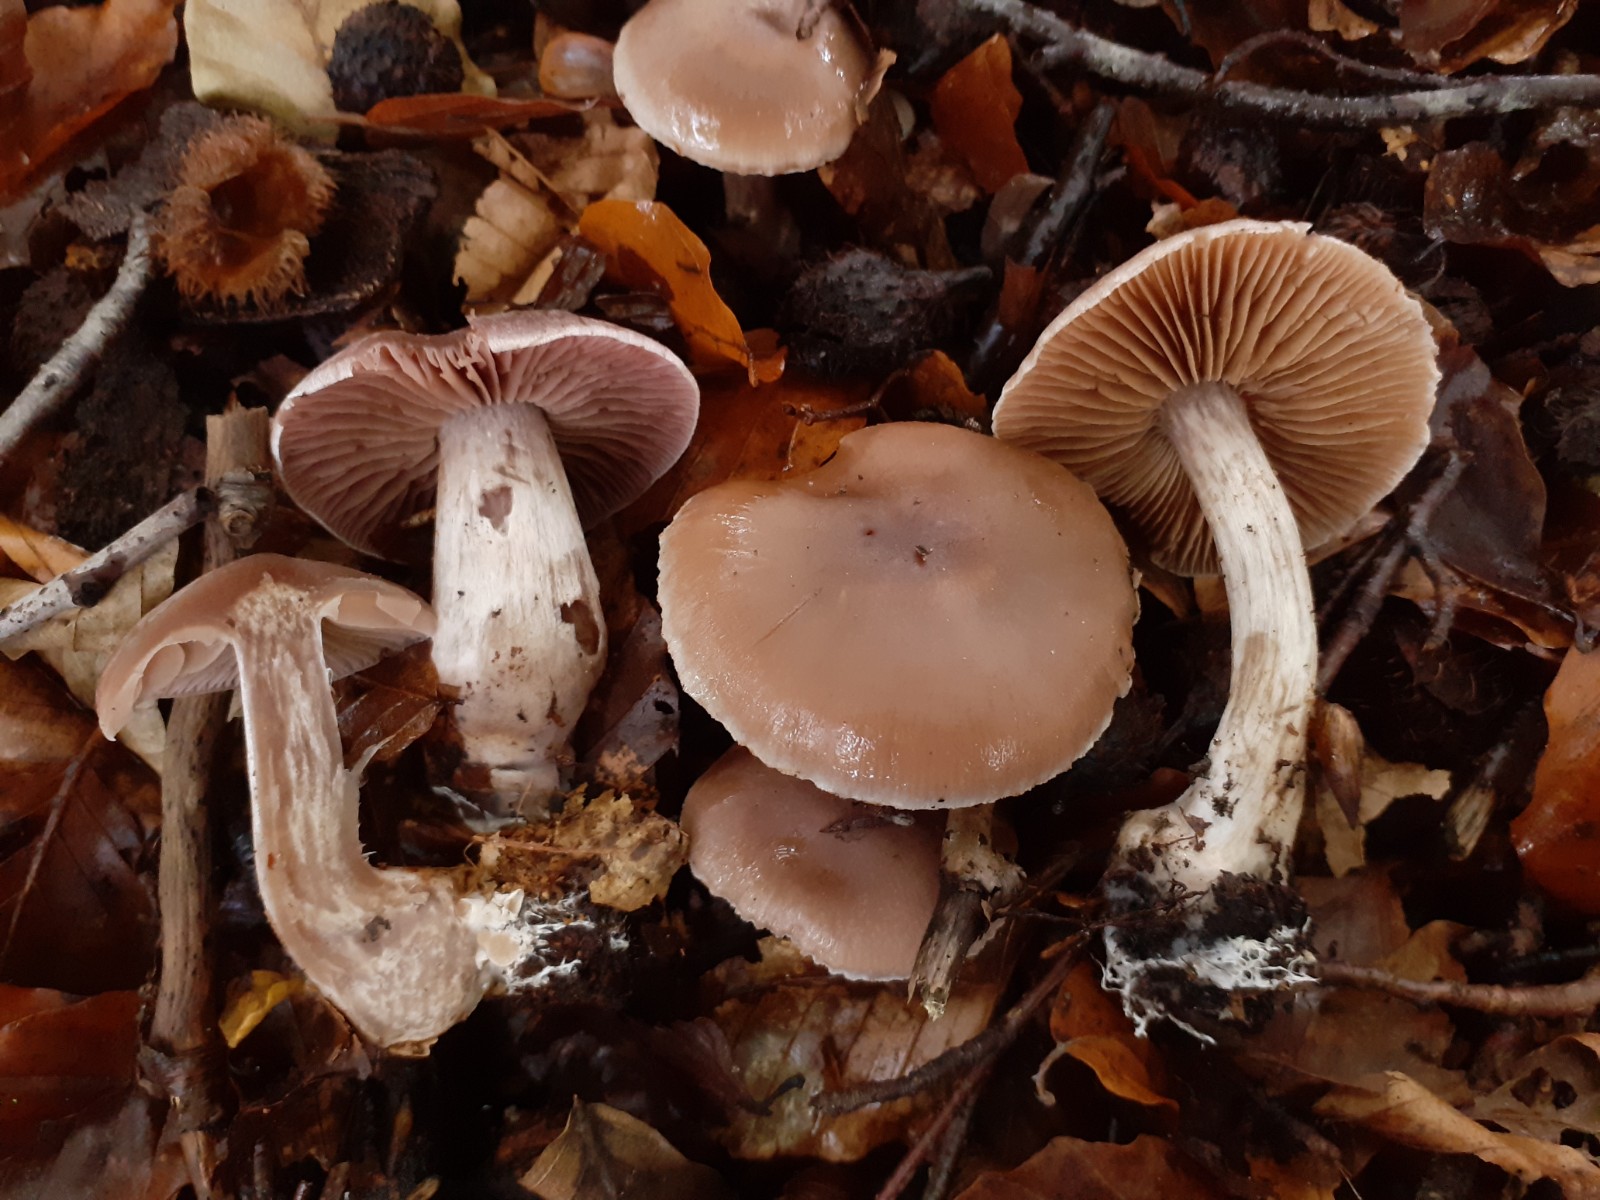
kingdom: Fungi
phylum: Basidiomycota
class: Agaricomycetes
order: Agaricales
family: Cortinariaceae
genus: Cortinarius
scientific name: Cortinarius phaeosmus
